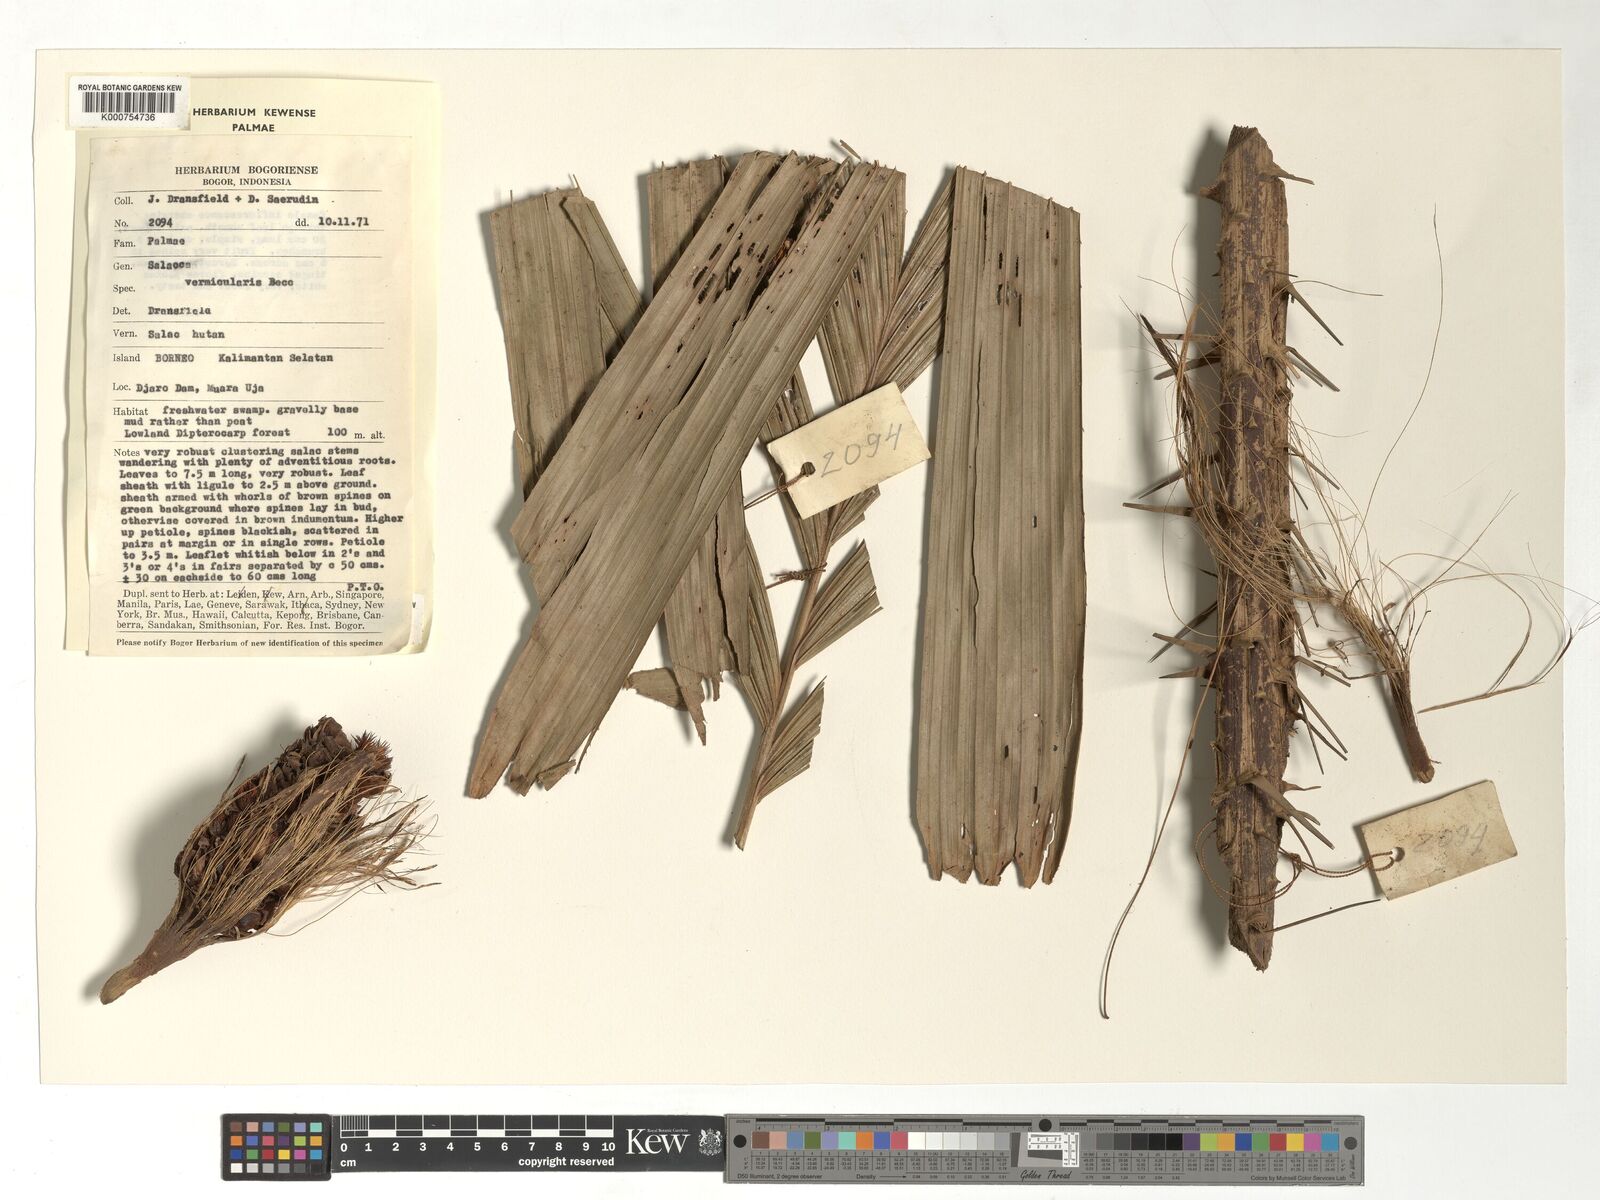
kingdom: Plantae
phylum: Tracheophyta
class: Liliopsida
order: Arecales
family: Arecaceae
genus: Salacca
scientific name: Salacca vermicularis
